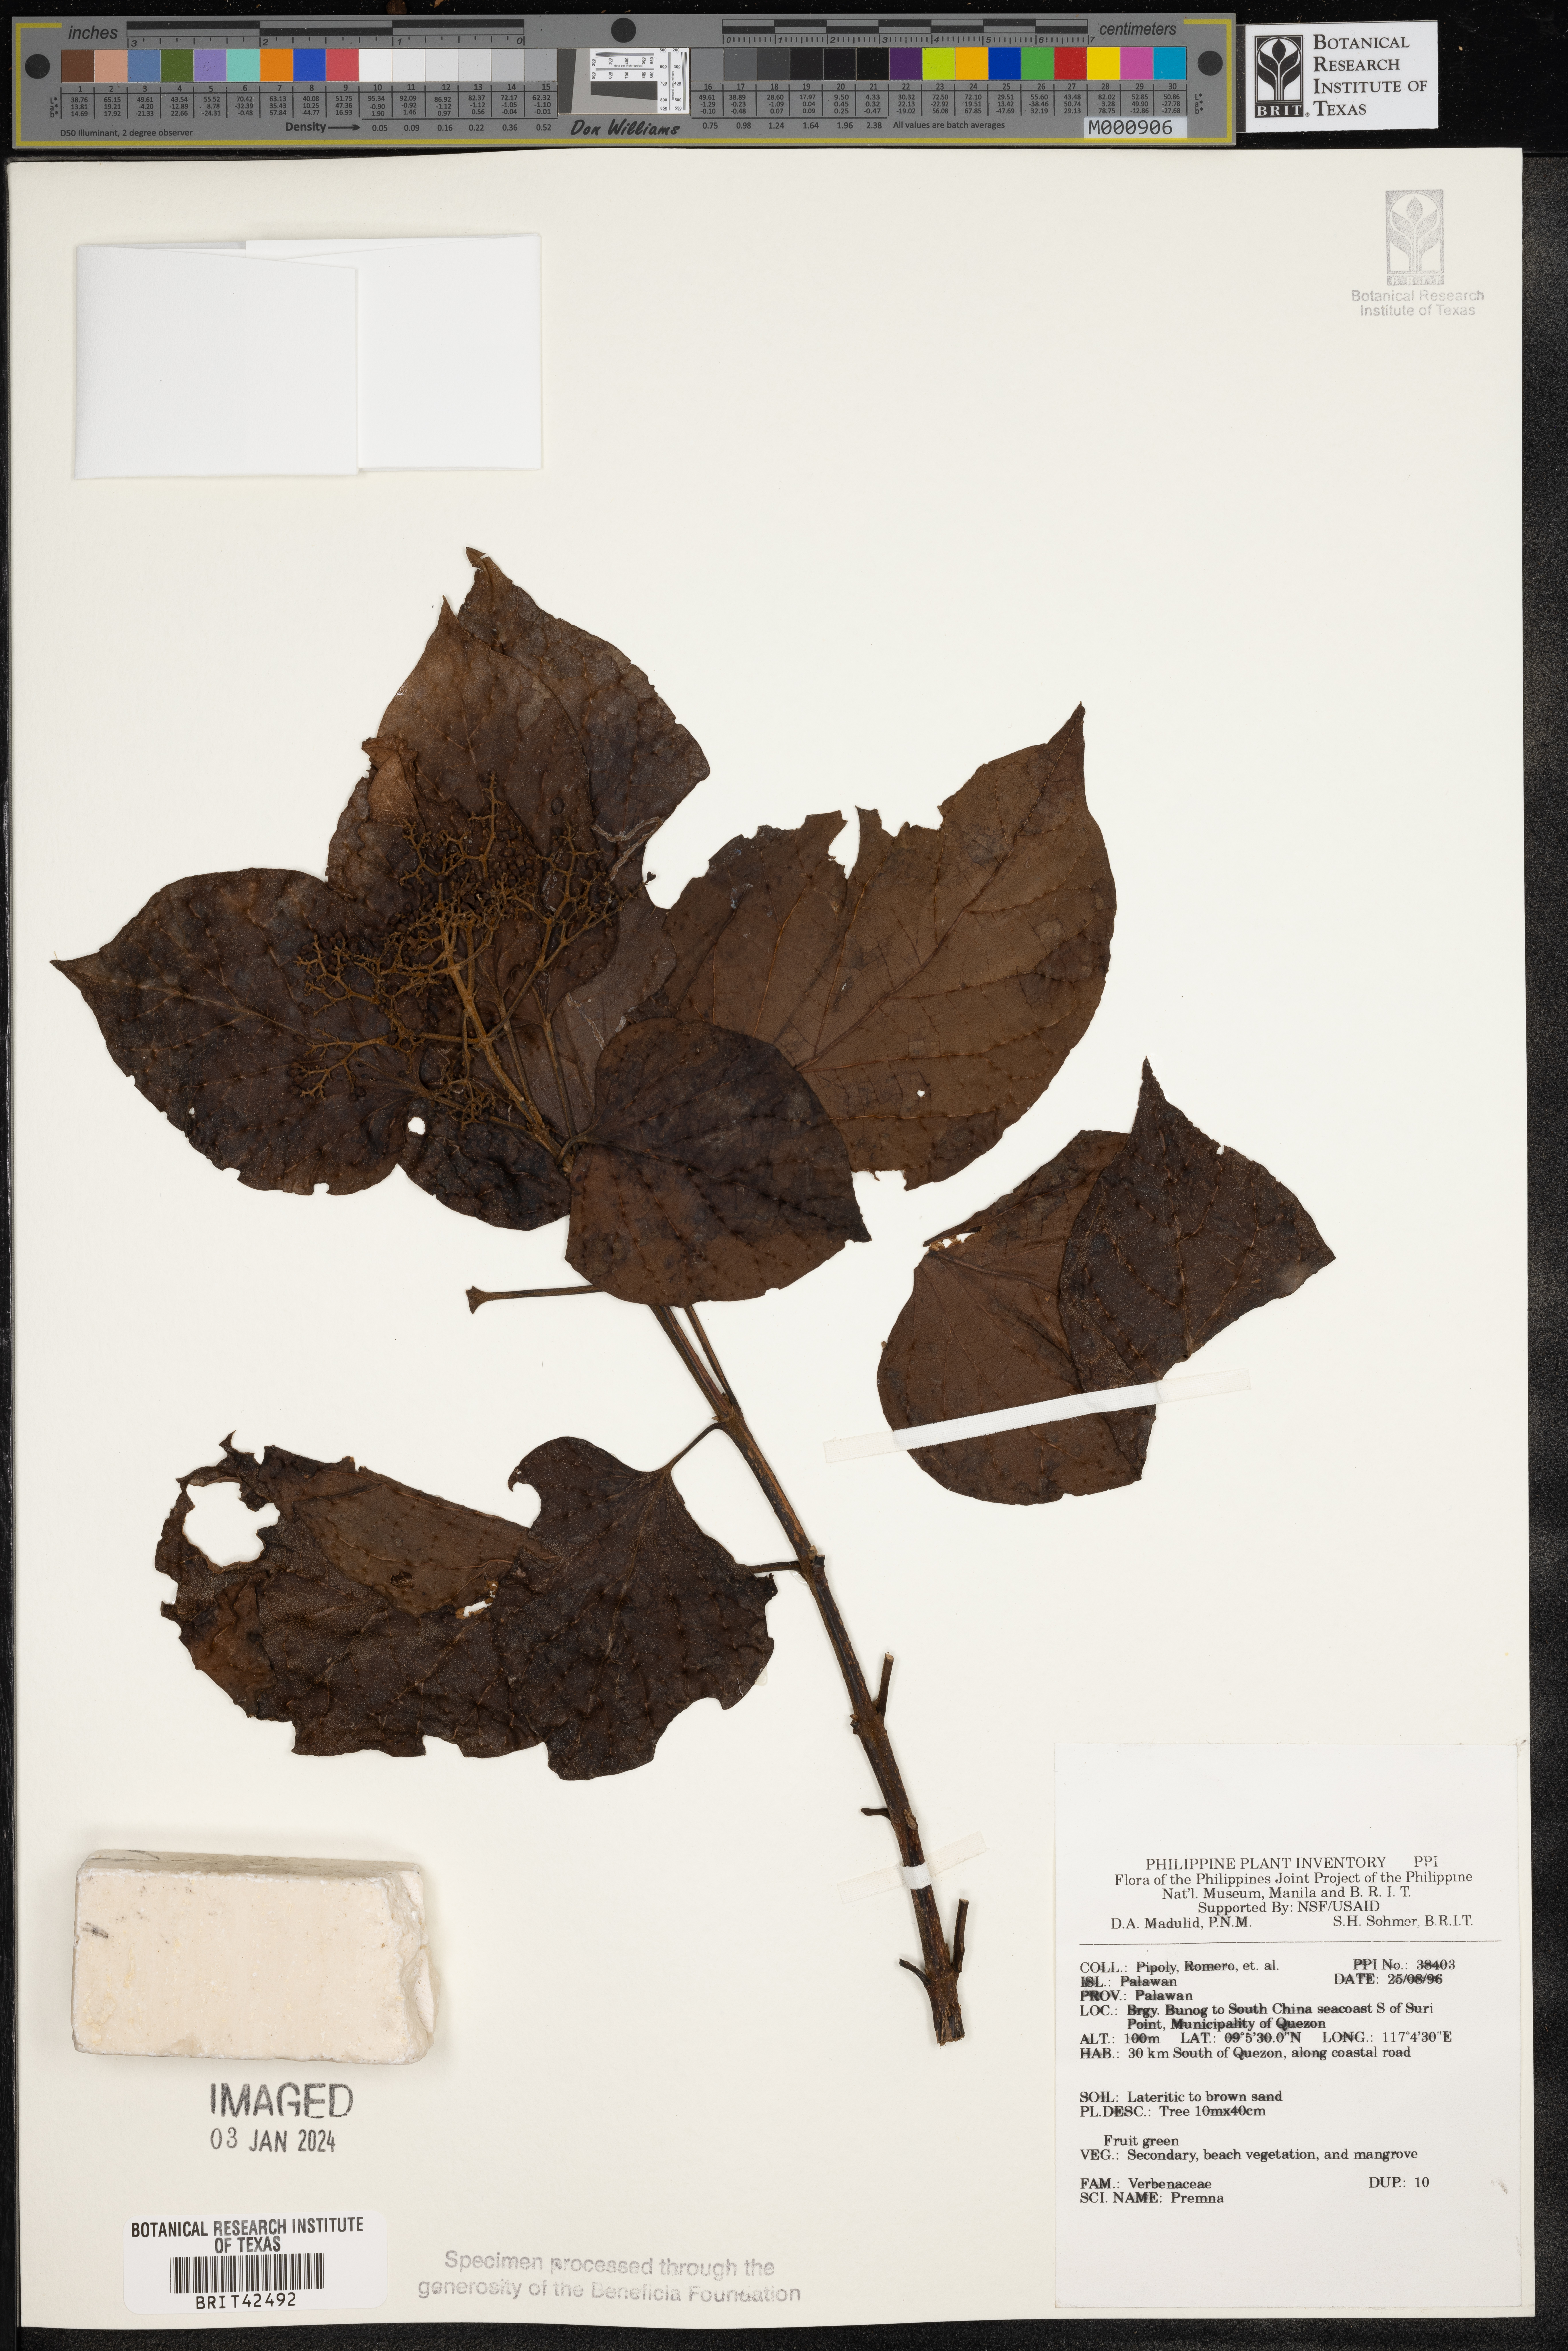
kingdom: Plantae
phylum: Tracheophyta
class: Magnoliopsida
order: Lamiales
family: Lamiaceae
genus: Premna
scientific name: Premna
